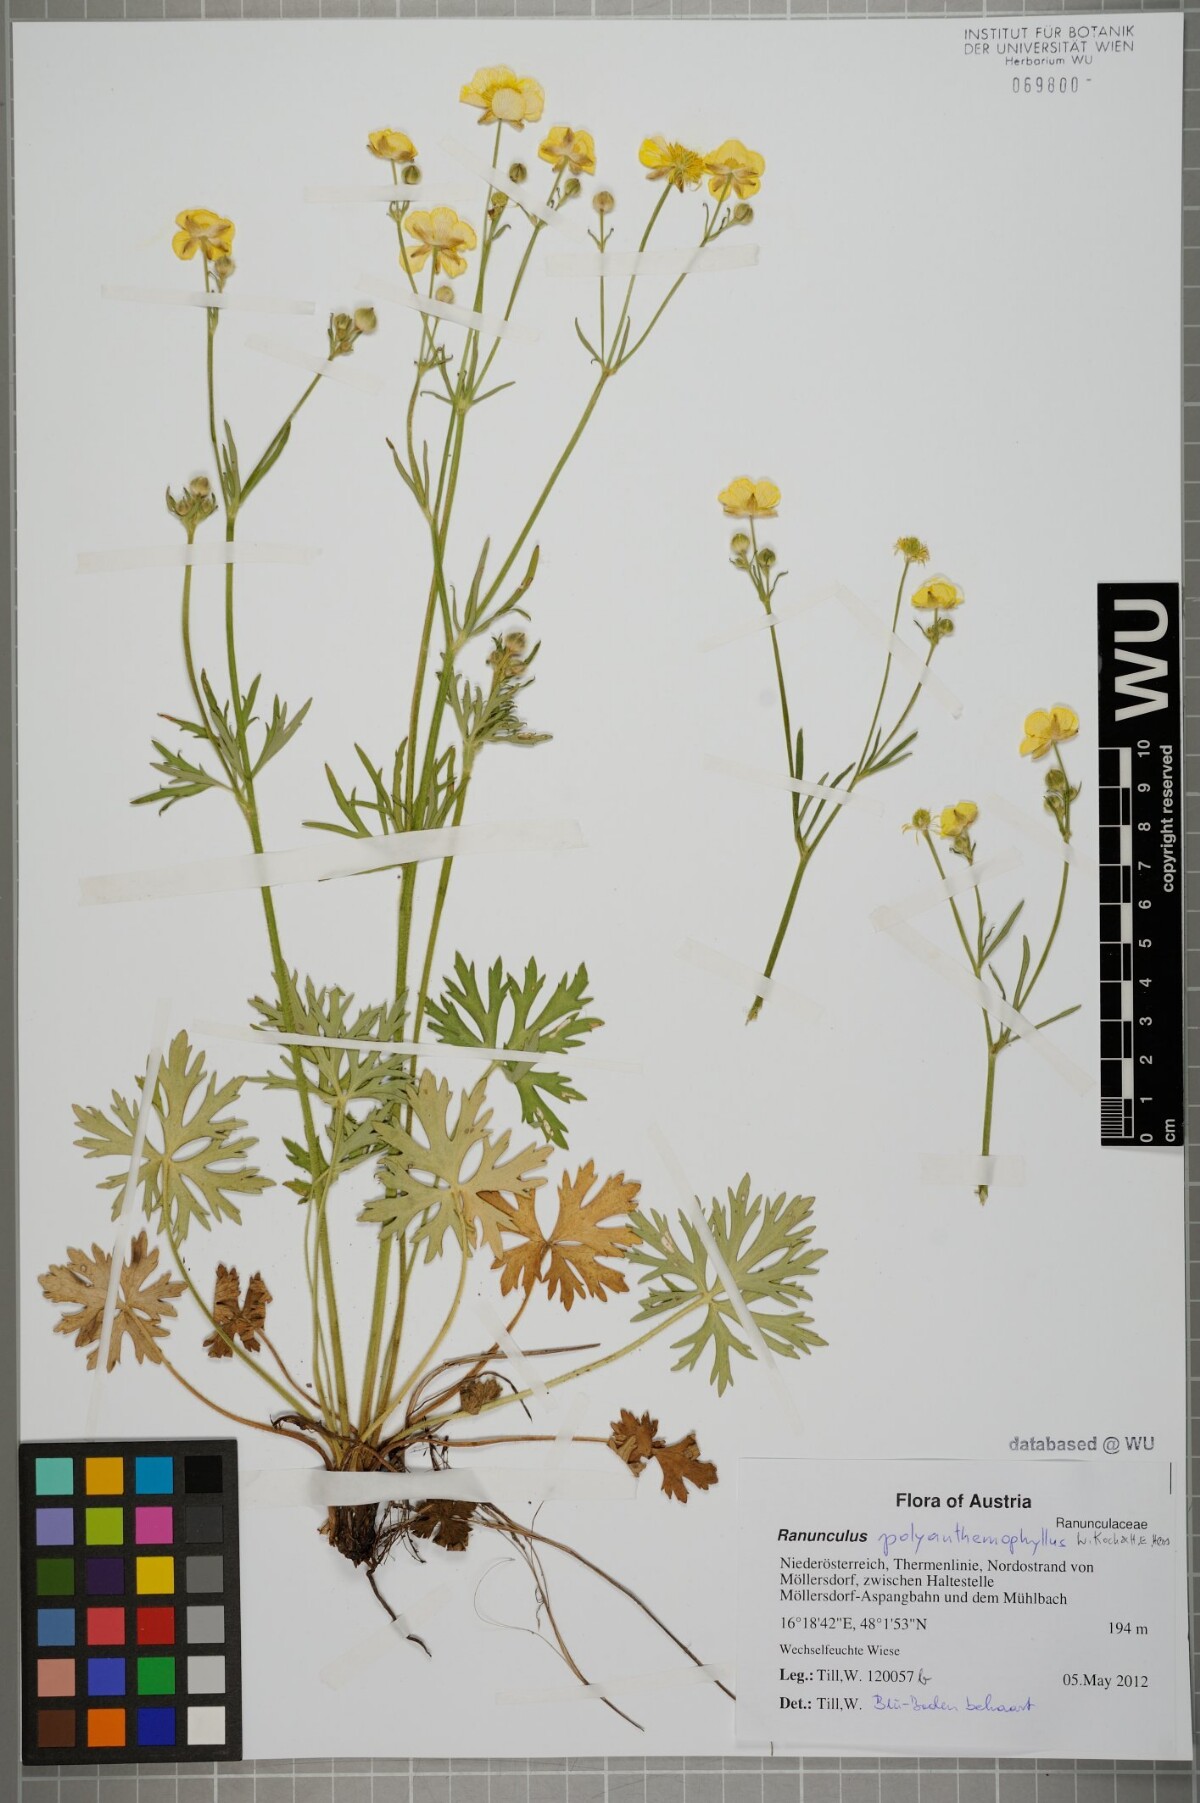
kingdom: Plantae
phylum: Tracheophyta
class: Magnoliopsida
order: Ranunculales
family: Ranunculaceae
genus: Ranunculus
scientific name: Ranunculus polyanthemos
